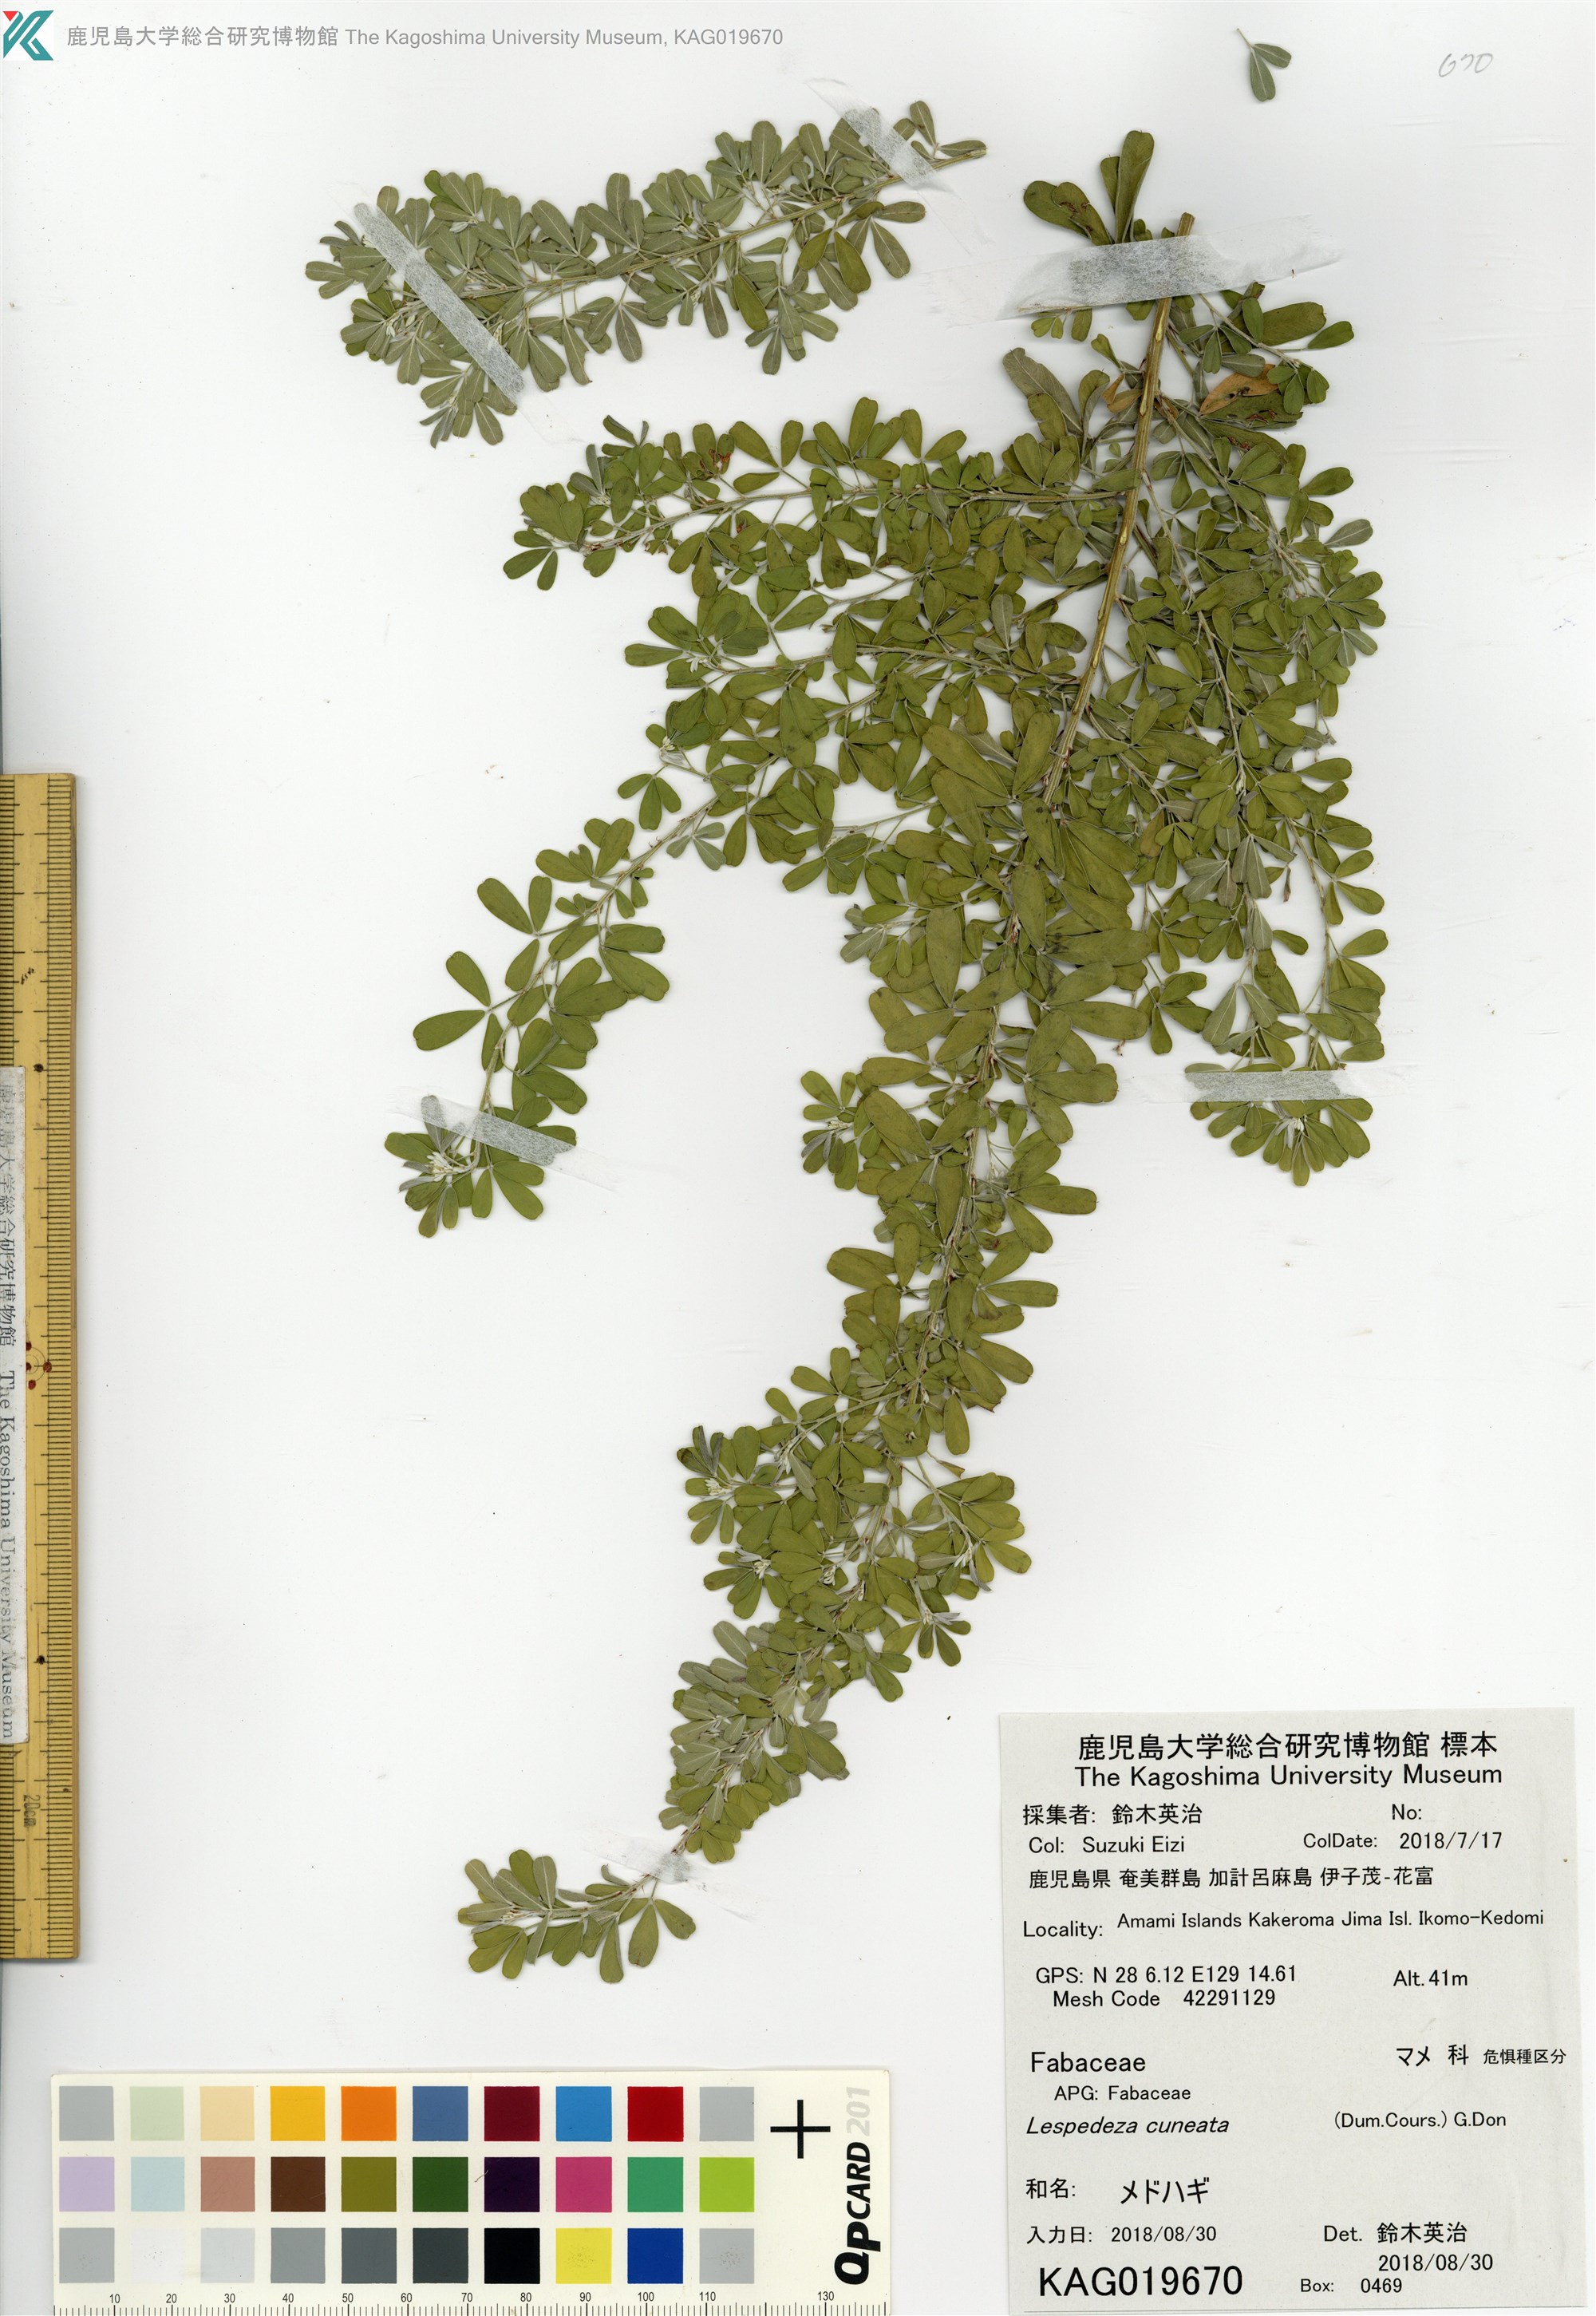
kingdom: Plantae
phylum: Tracheophyta
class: Magnoliopsida
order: Fabales
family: Fabaceae
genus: Lespedeza
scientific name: Lespedeza cuneata
